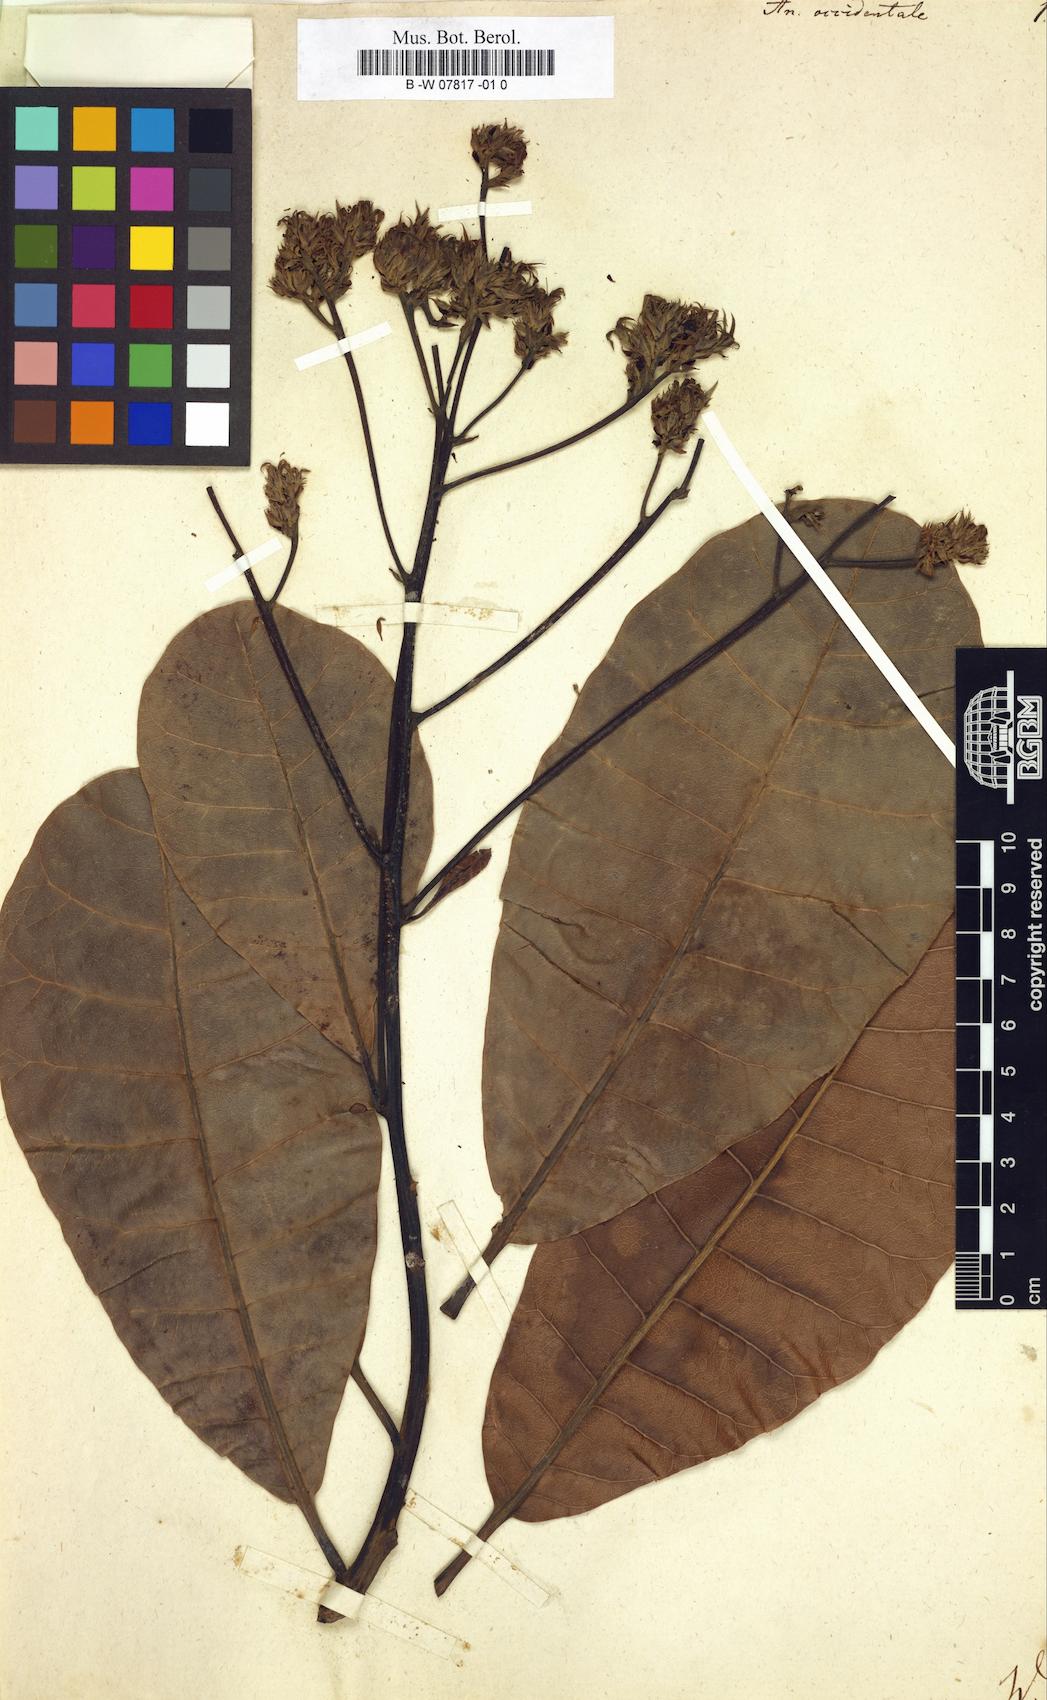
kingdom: Plantae
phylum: Tracheophyta
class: Magnoliopsida
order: Sapindales
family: Anacardiaceae
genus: Anacardium
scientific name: Anacardium occidentale
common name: Cashew
